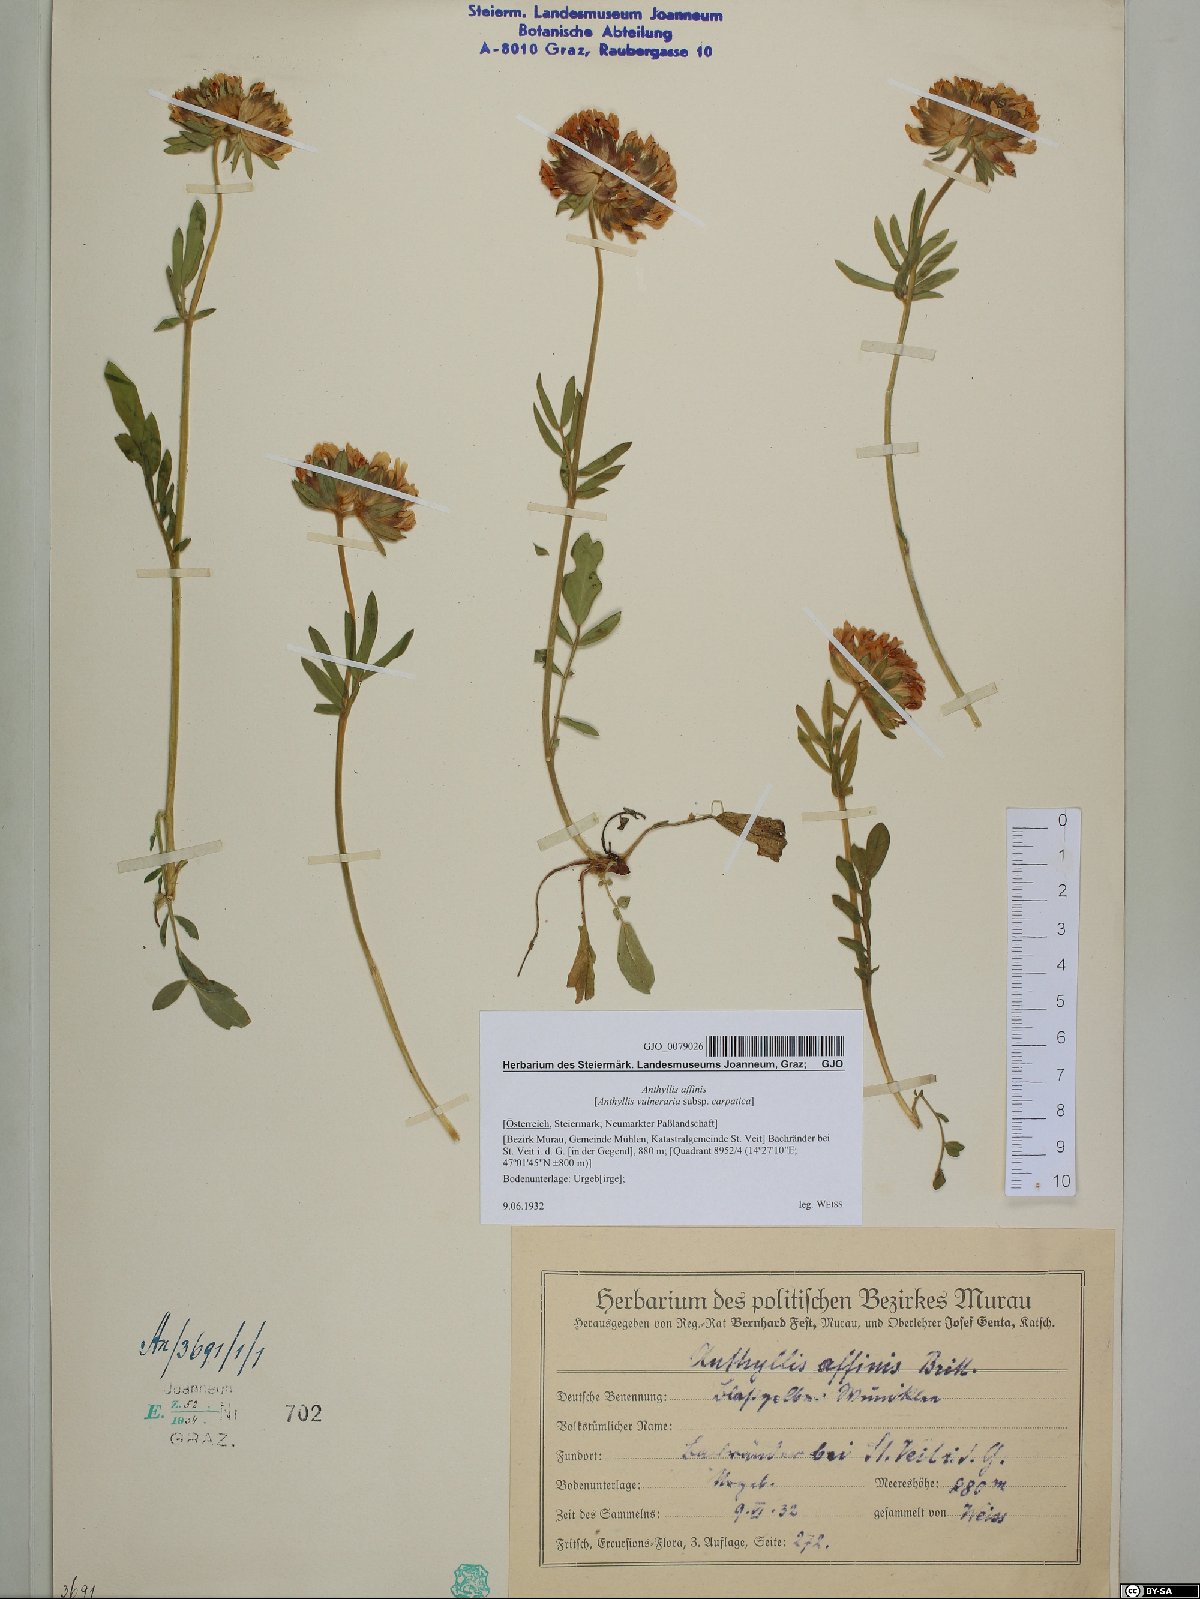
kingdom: Plantae
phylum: Tracheophyta
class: Magnoliopsida
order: Fabales
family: Fabaceae
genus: Anthyllis
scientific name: Anthyllis vulneraria
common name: Kidney vetch
